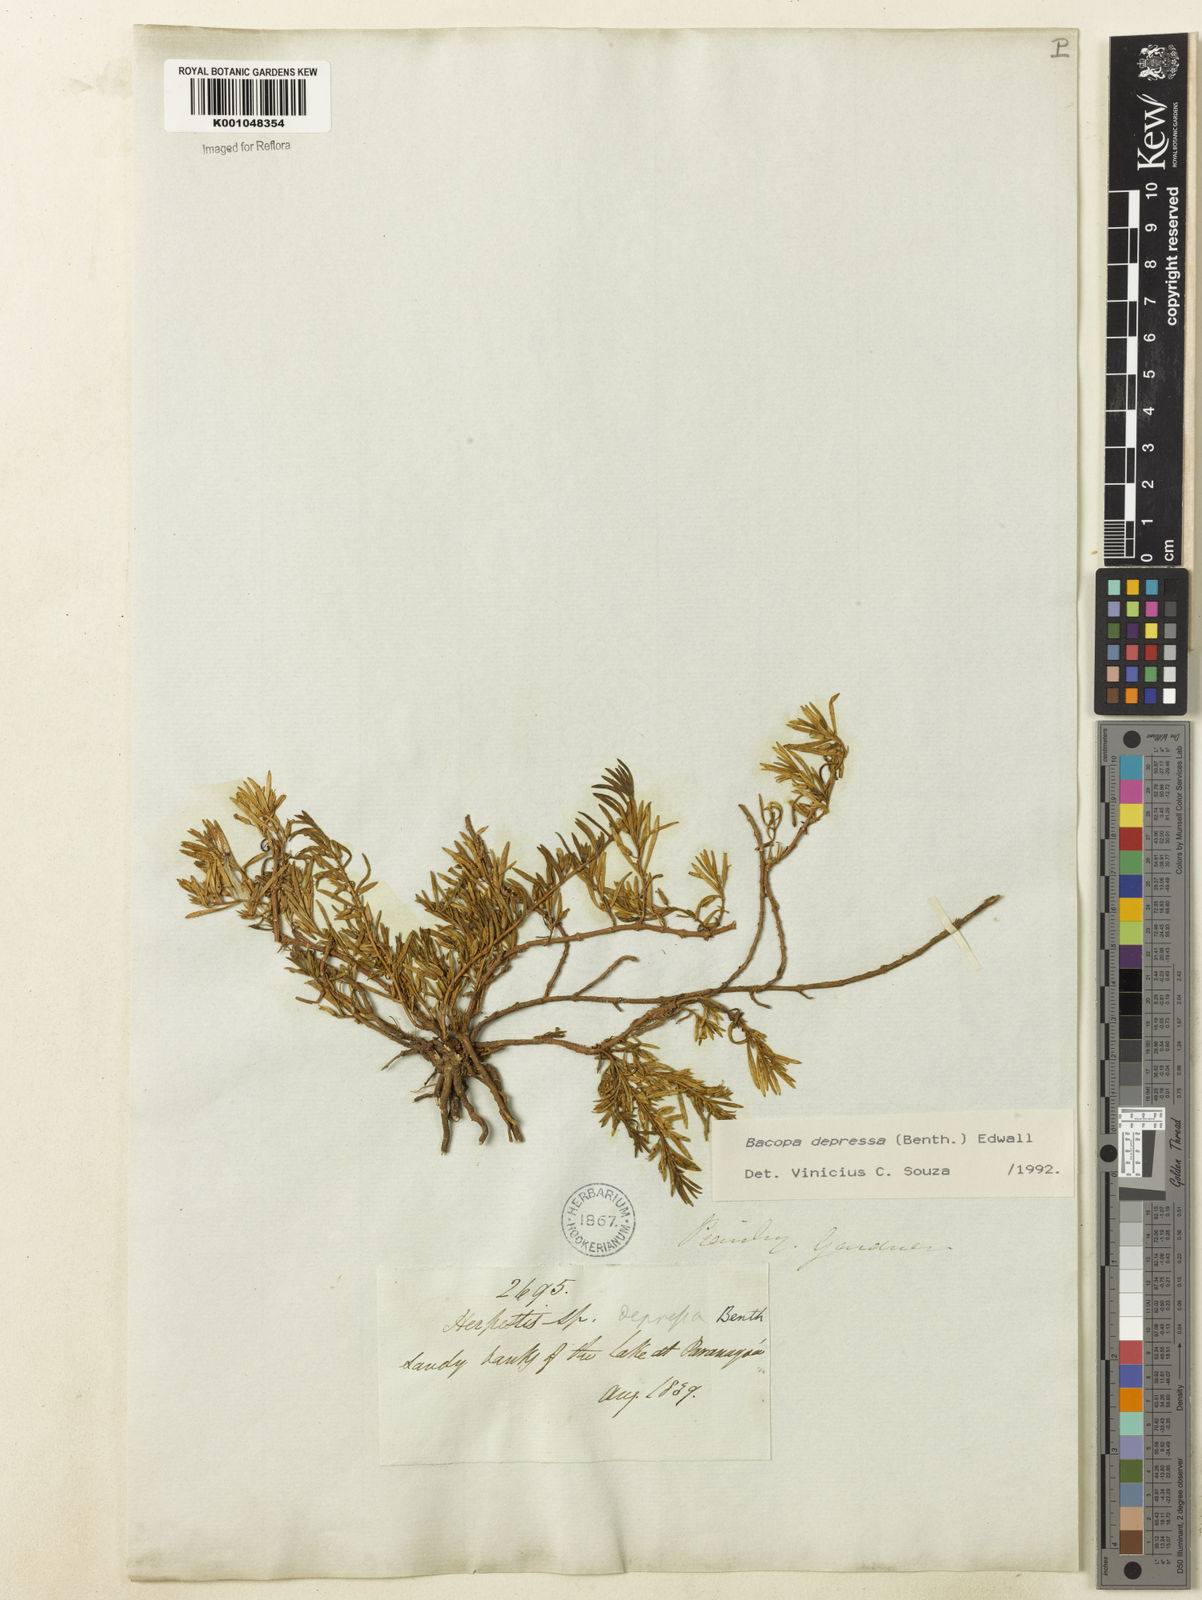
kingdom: Plantae
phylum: Tracheophyta
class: Magnoliopsida
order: Lamiales
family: Plantaginaceae
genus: Bacopa
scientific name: Bacopa depressa
